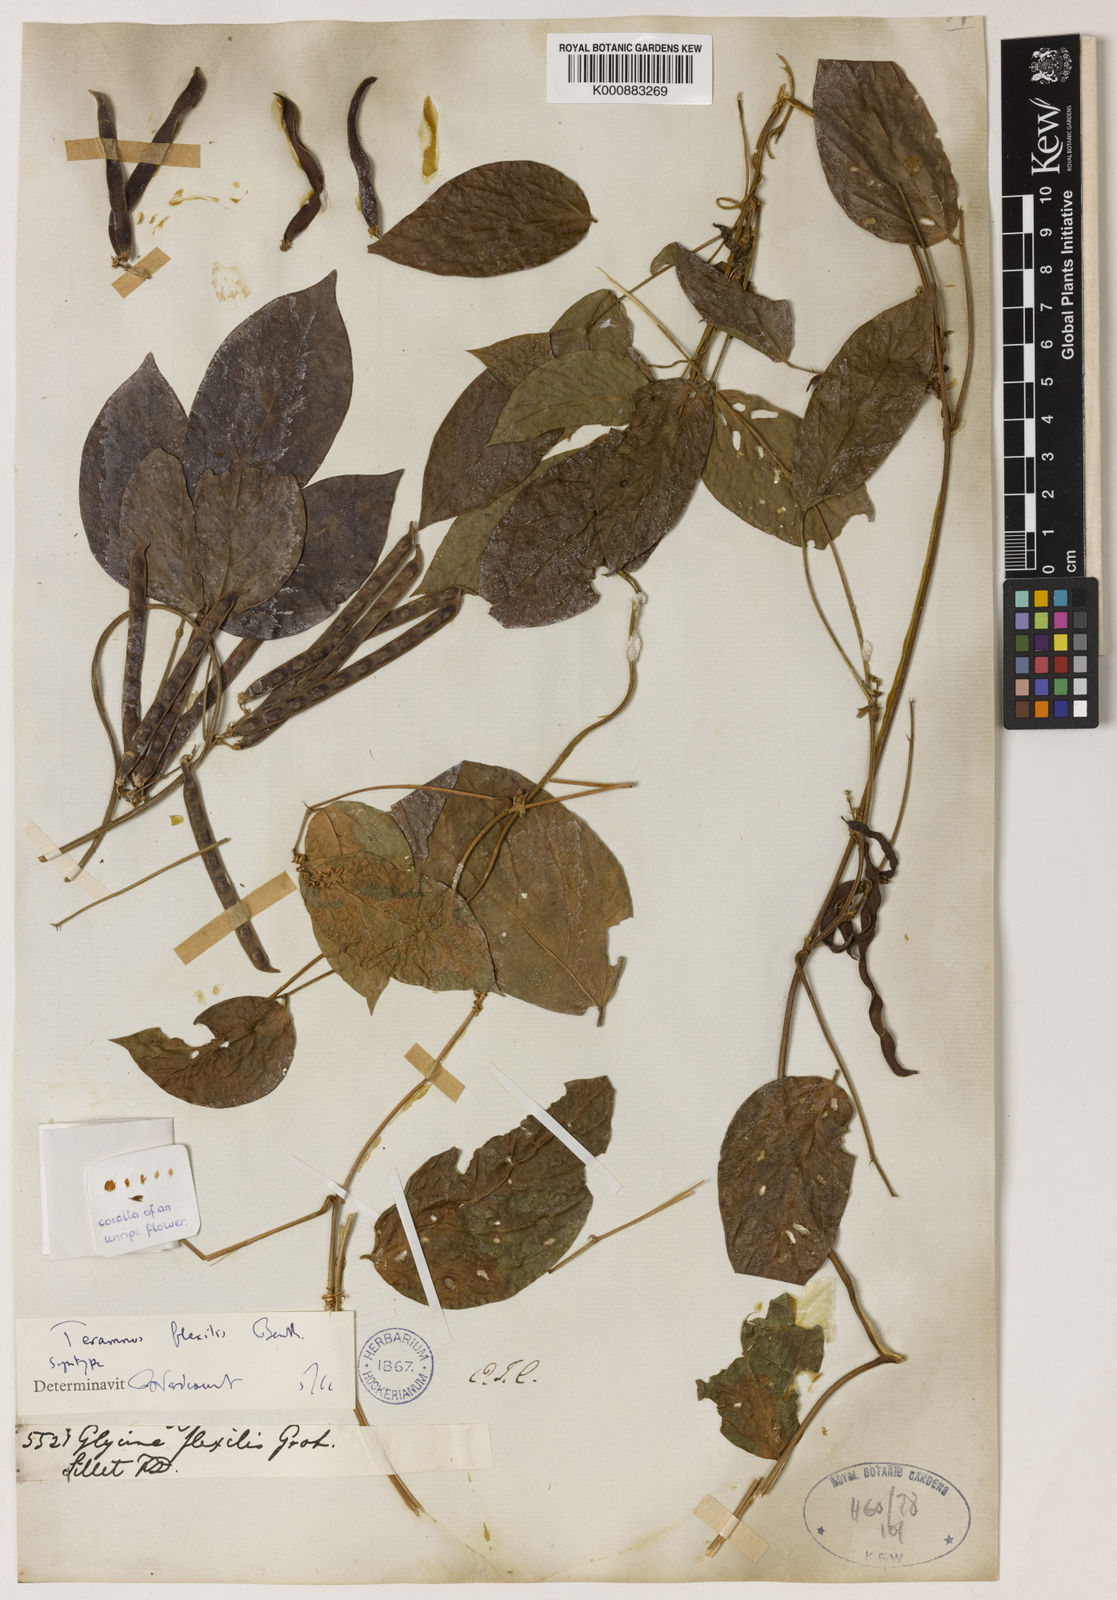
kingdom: Plantae
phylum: Tracheophyta
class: Magnoliopsida
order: Fabales
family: Fabaceae
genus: Teramnus
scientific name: Teramnus flexilis
